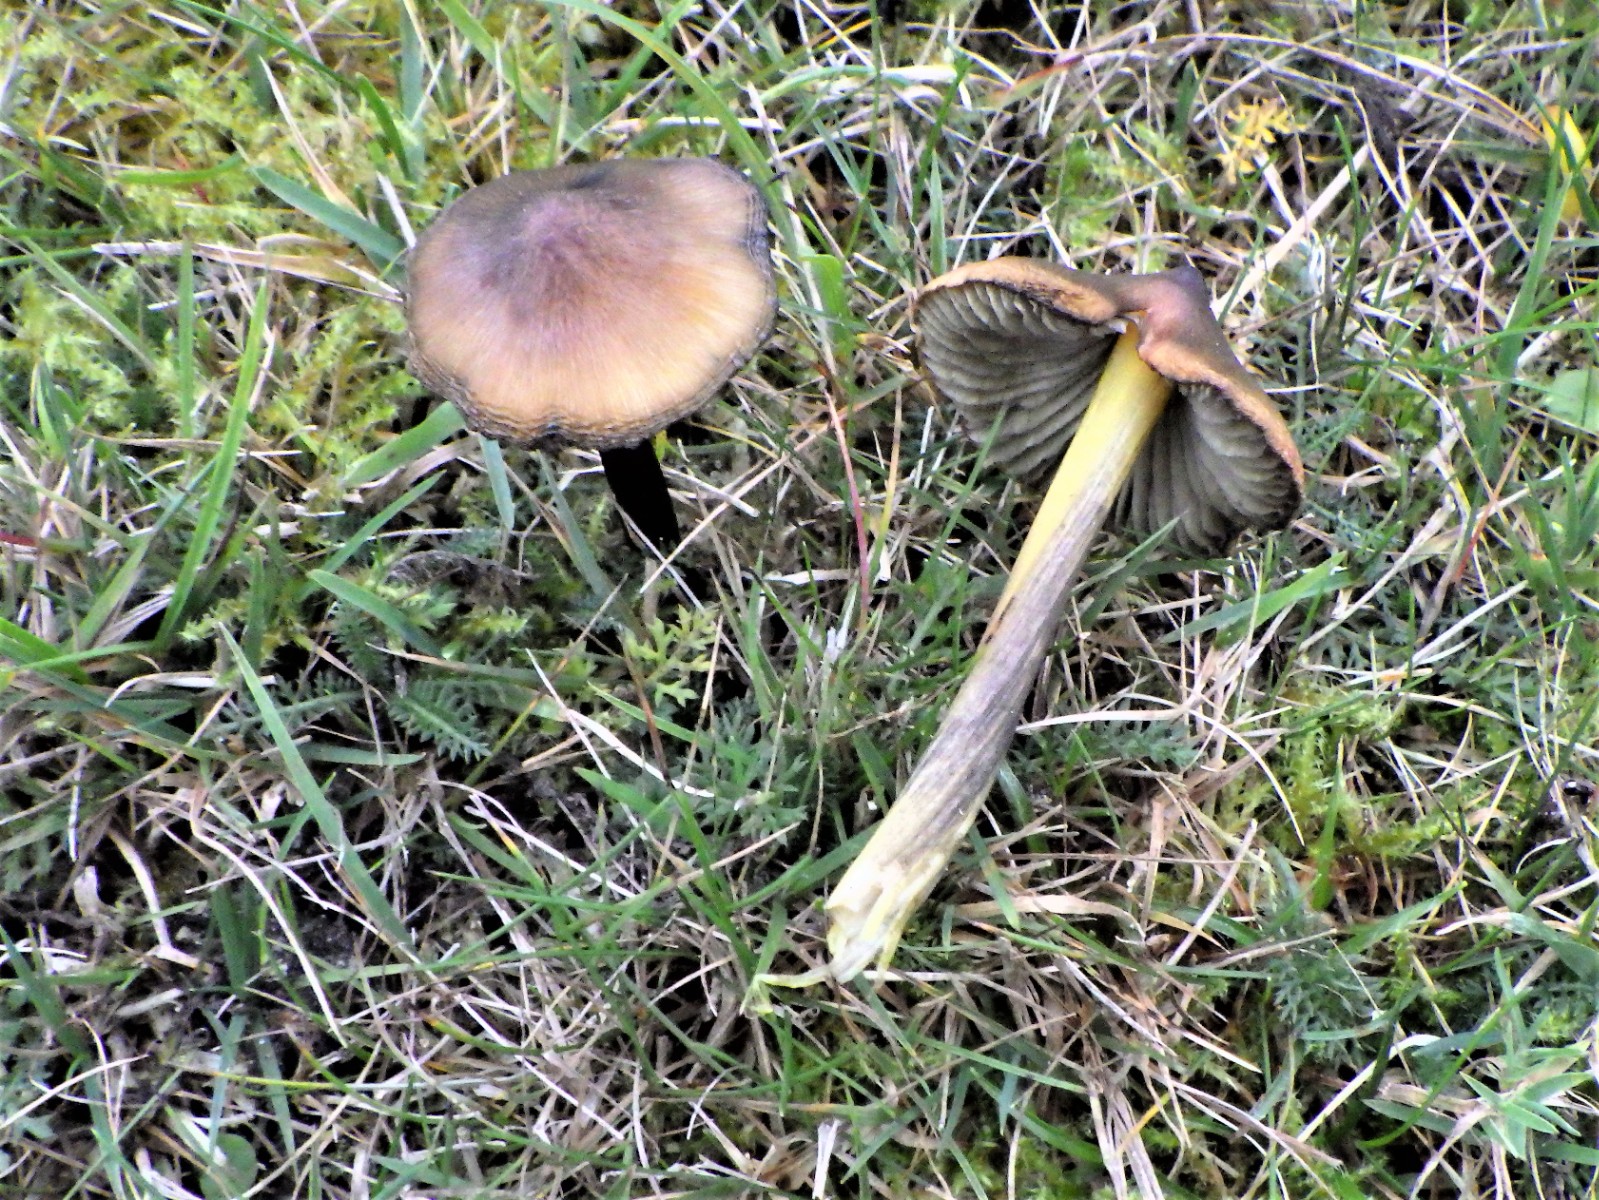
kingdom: Fungi
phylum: Basidiomycota
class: Agaricomycetes
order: Agaricales
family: Hygrophoraceae
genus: Hygrocybe
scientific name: Hygrocybe conica
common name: kegle-vokshat
